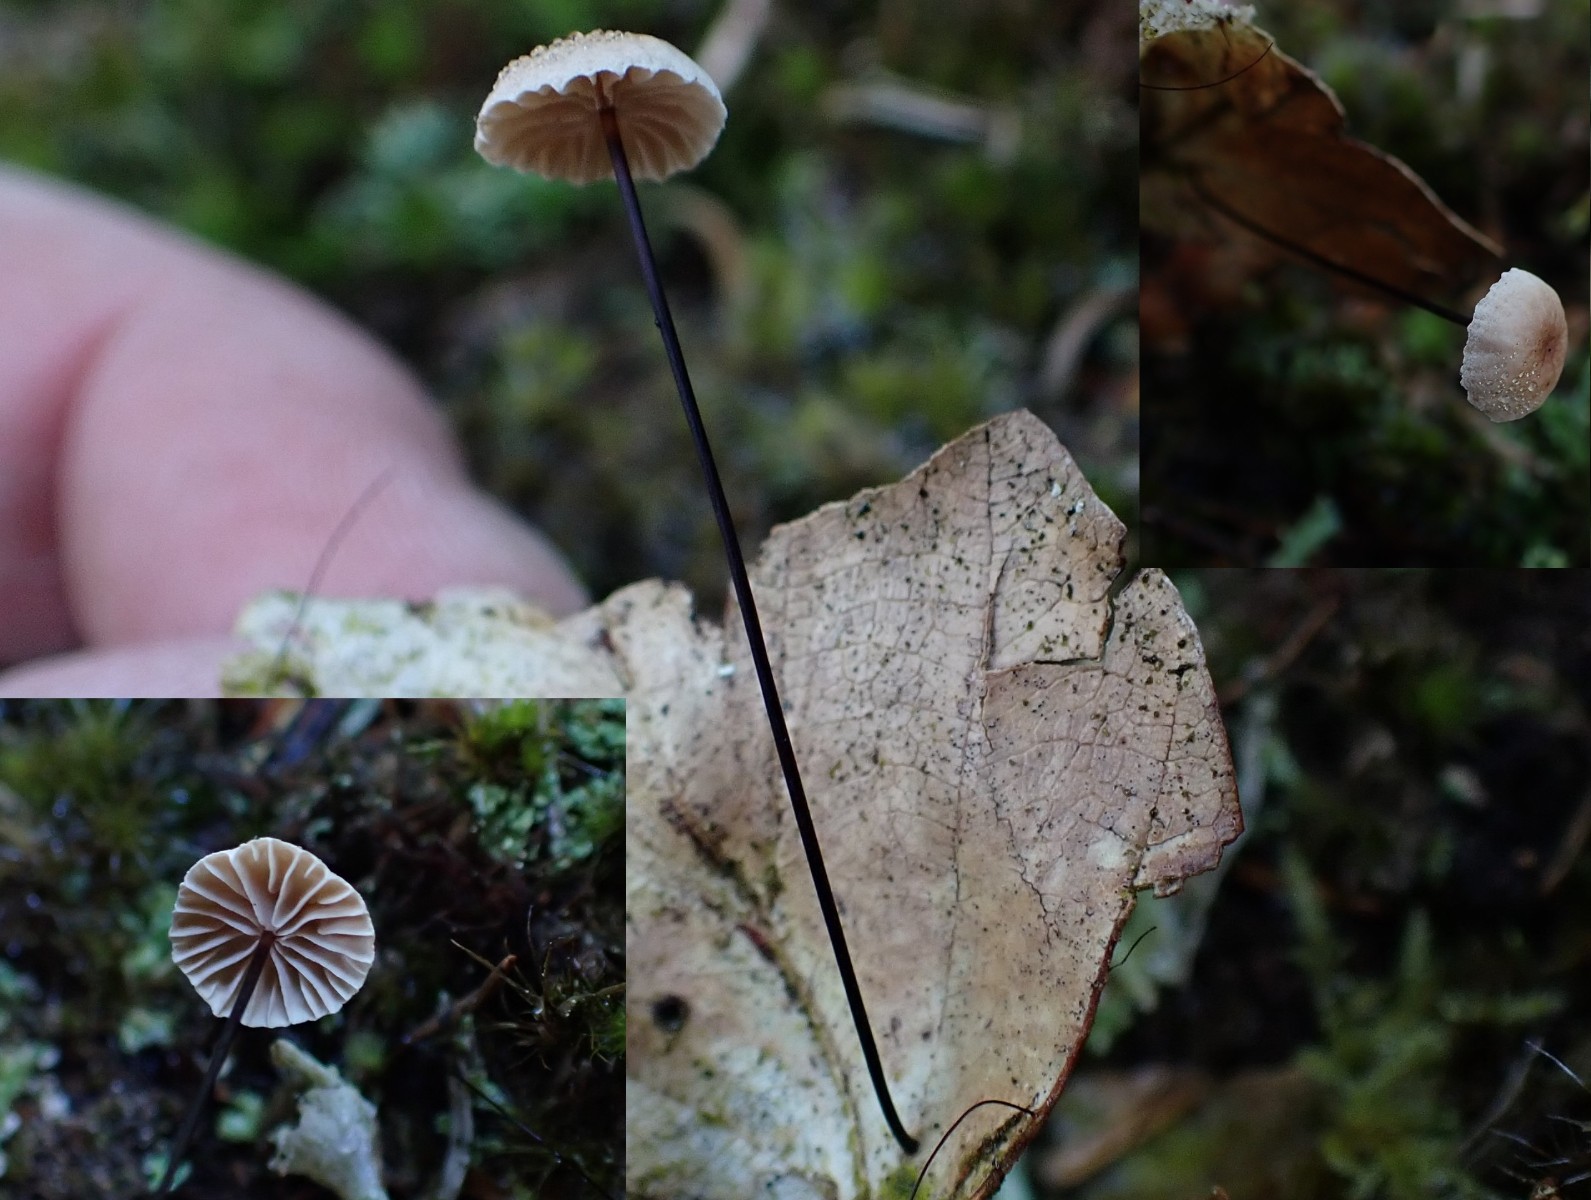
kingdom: Fungi
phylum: Basidiomycota
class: Agaricomycetes
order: Agaricales
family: Omphalotaceae
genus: Gymnopus
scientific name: Gymnopus androsaceus
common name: trådstokket fladhat
